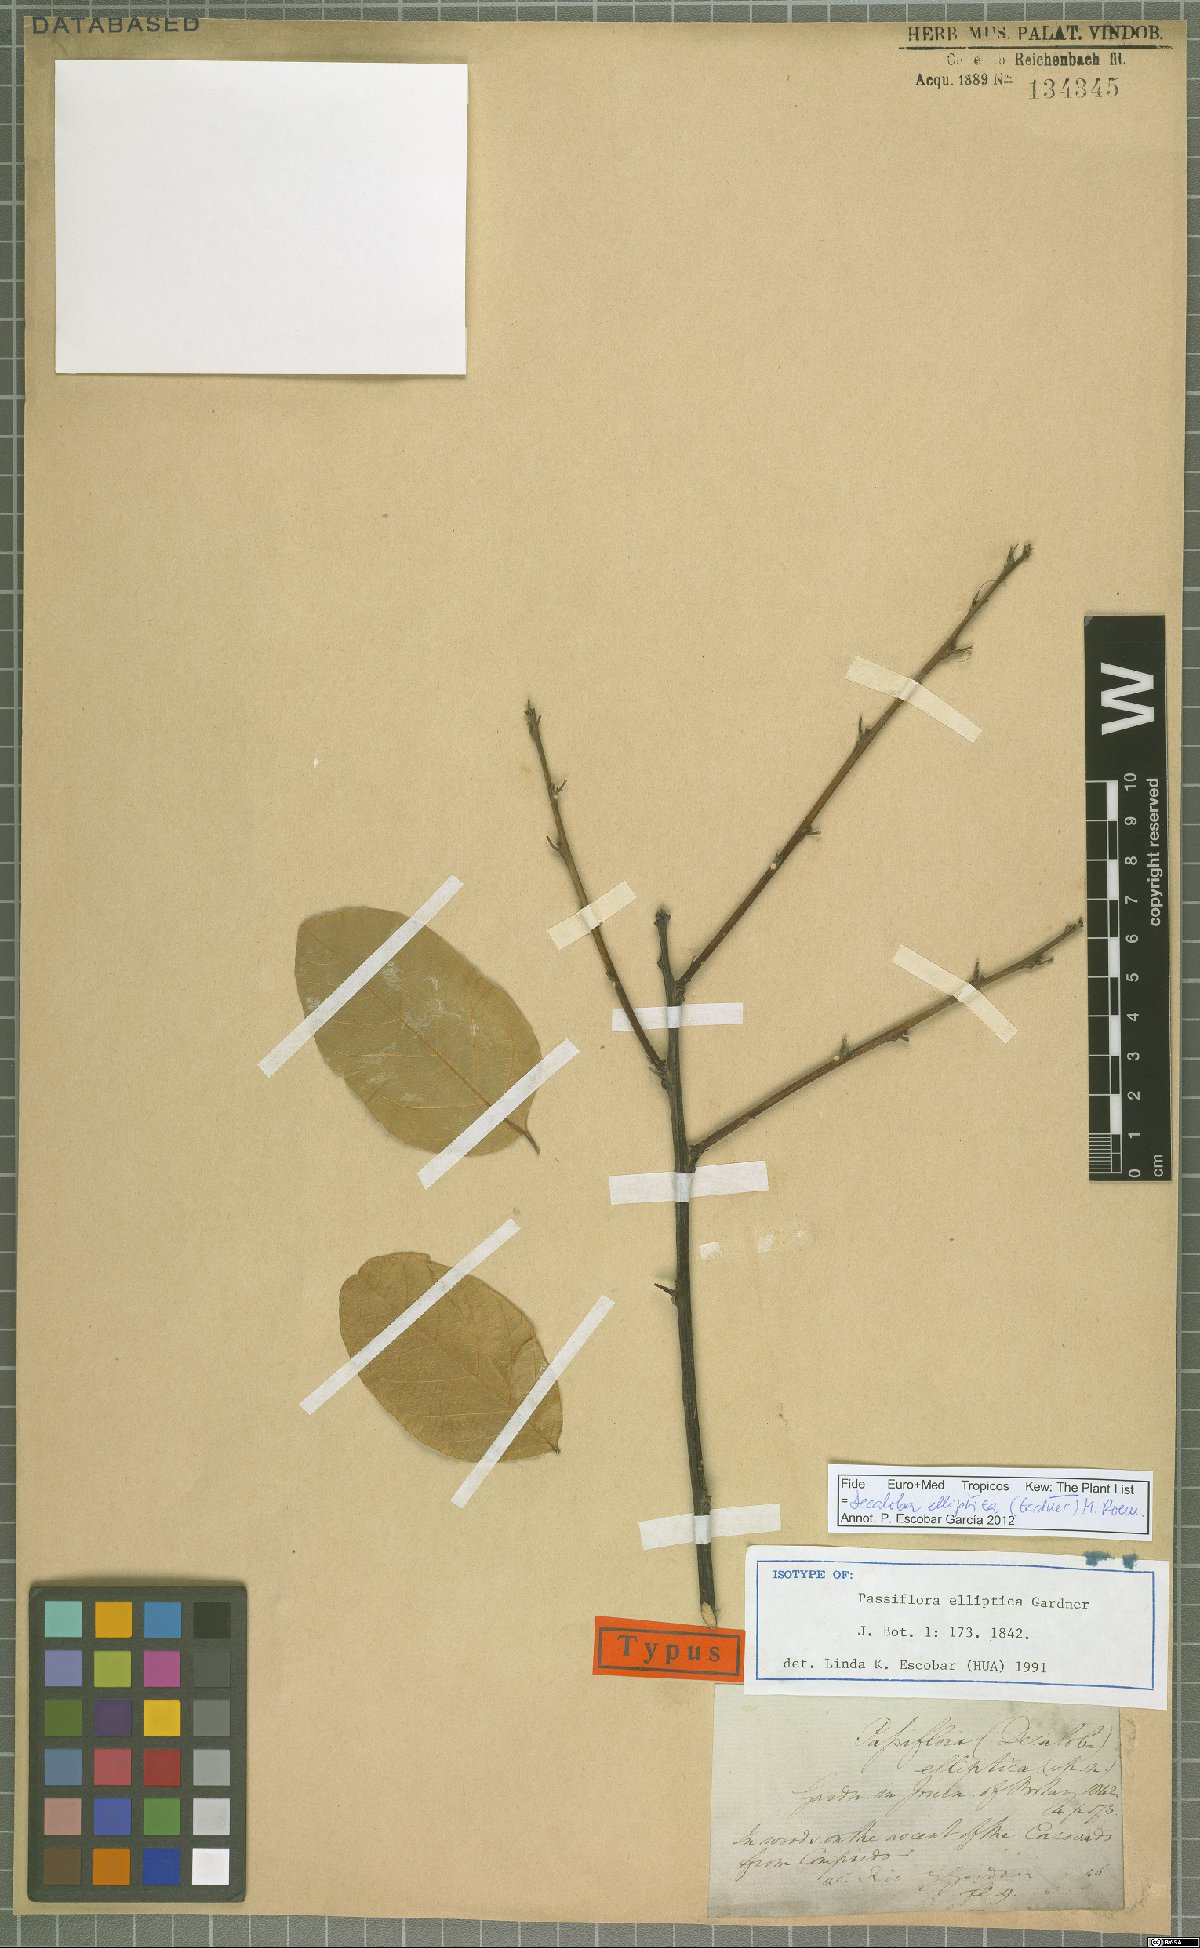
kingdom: Plantae
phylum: Tracheophyta
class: Magnoliopsida
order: Malpighiales
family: Passifloraceae
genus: Passiflora
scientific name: Passiflora elliptica
